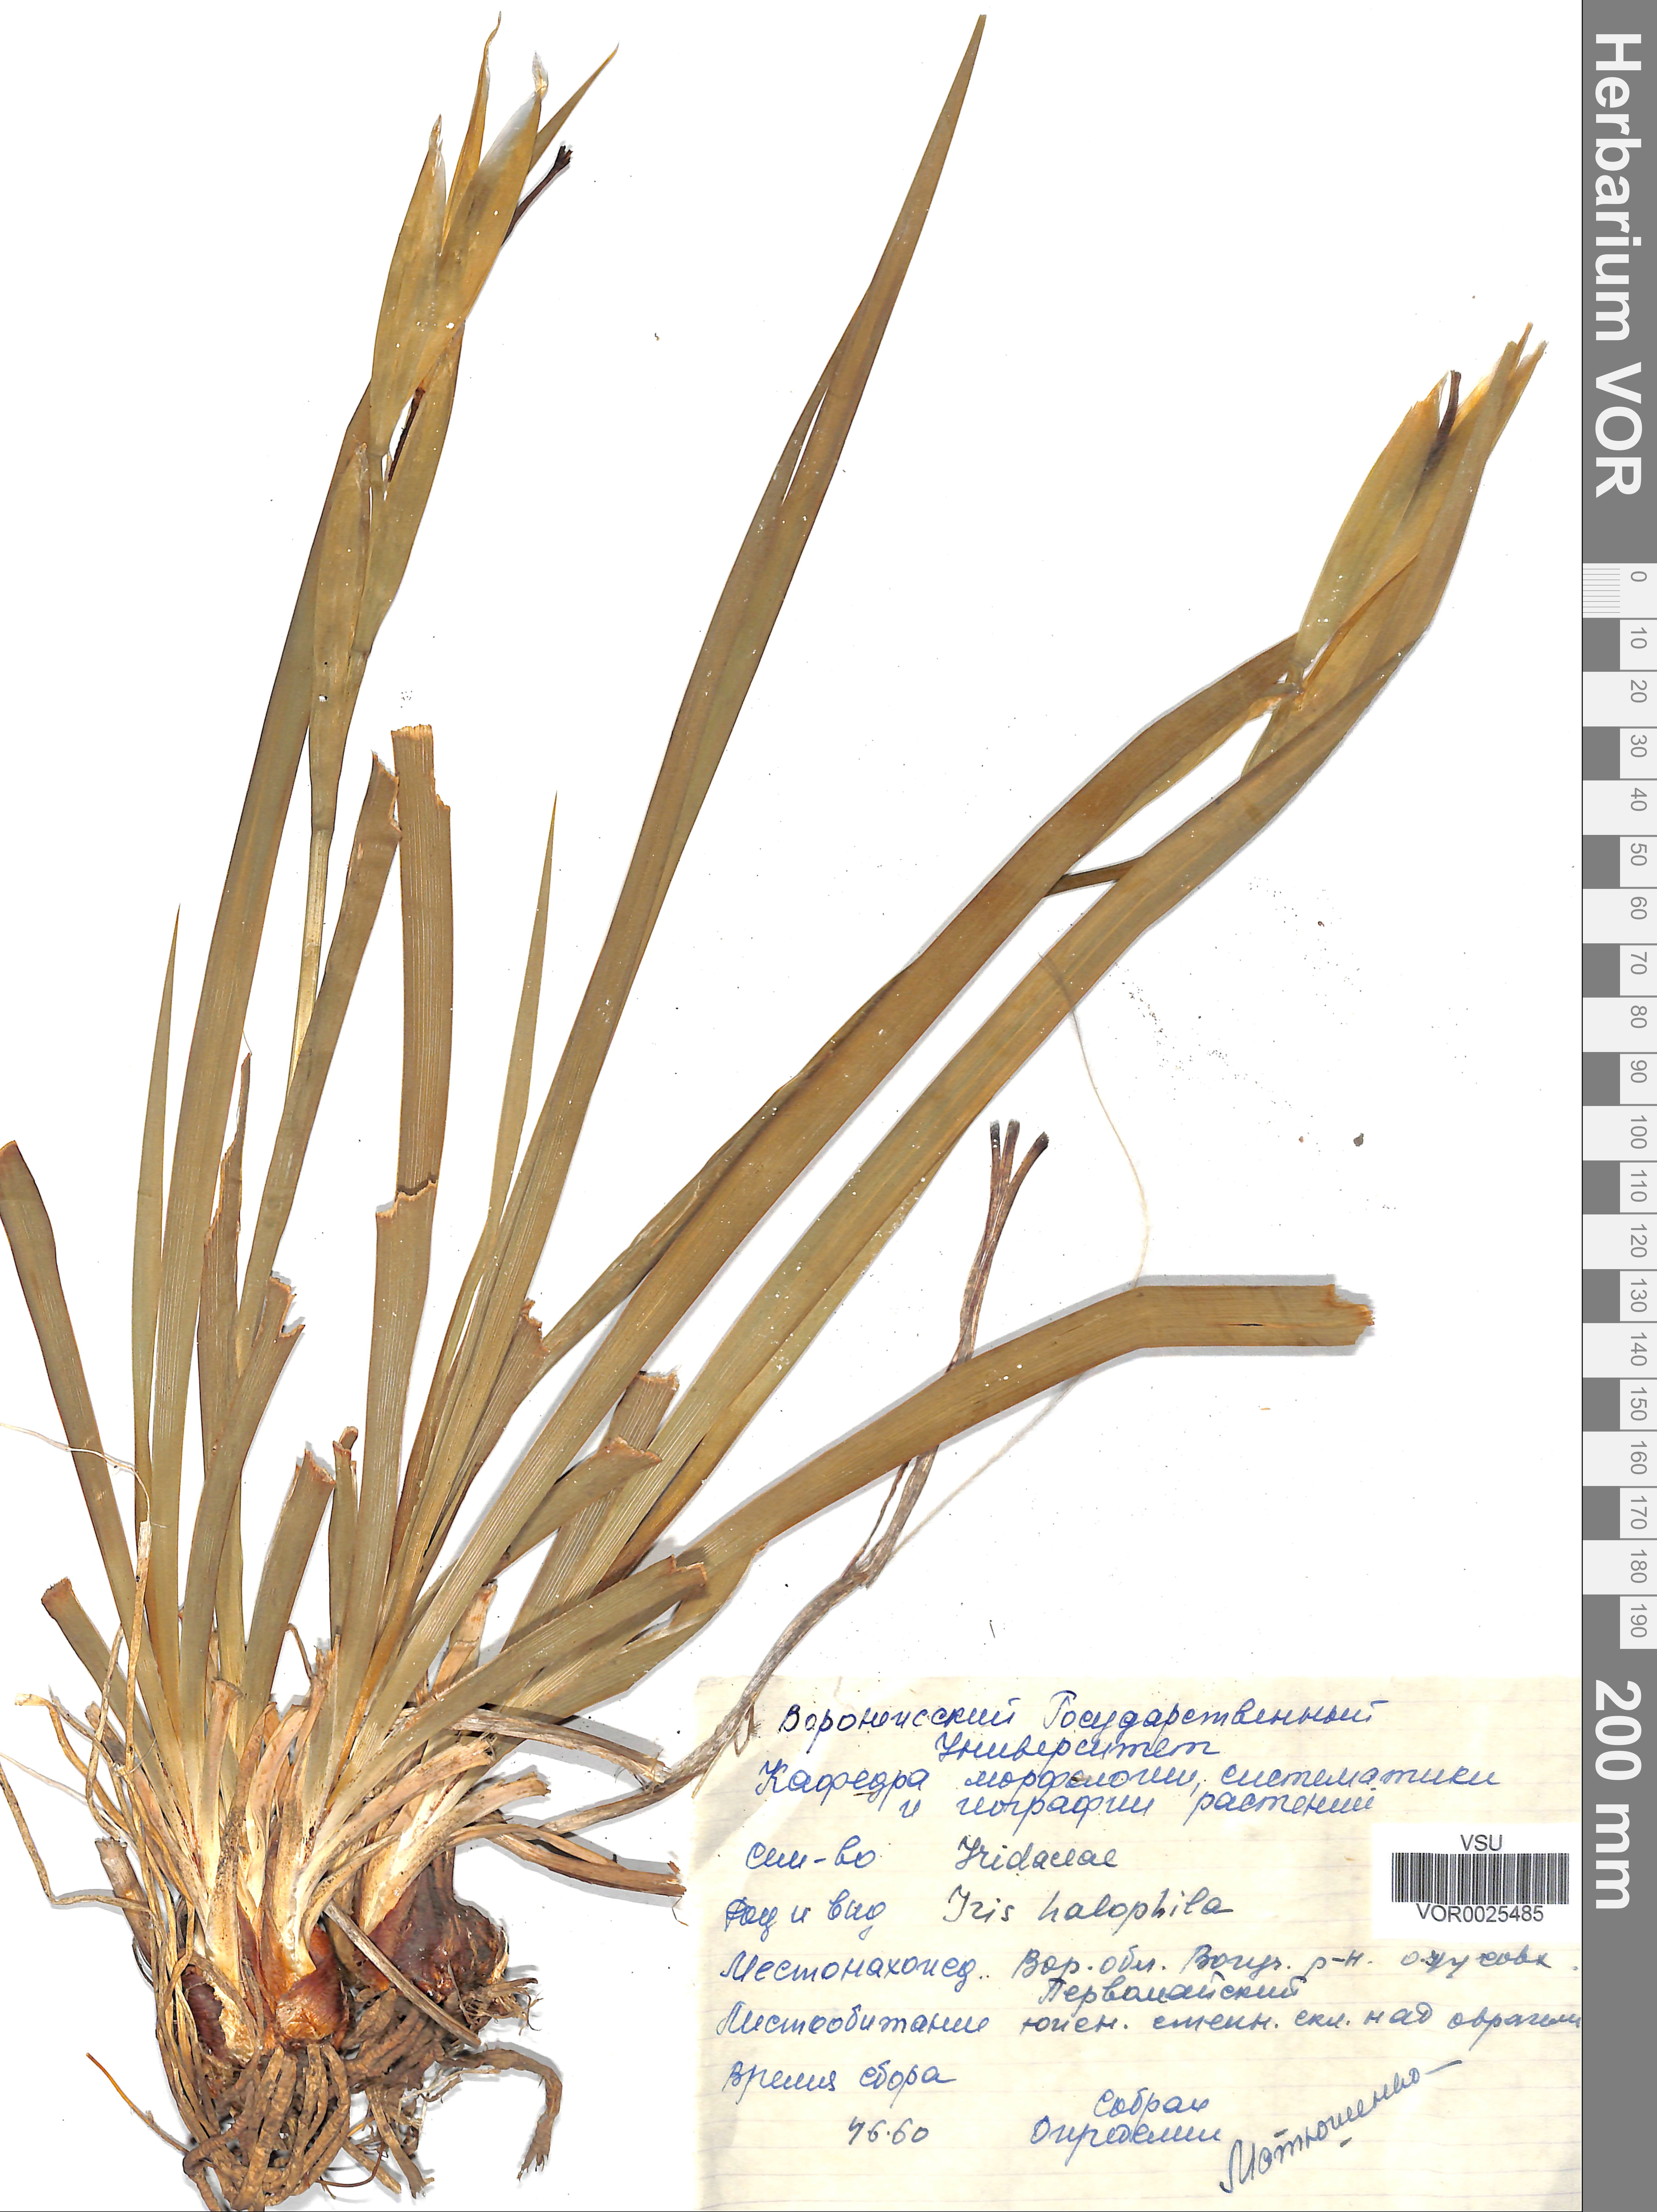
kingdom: Plantae
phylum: Tracheophyta
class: Liliopsida
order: Asparagales
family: Iridaceae
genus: Iris
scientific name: Iris halophila
